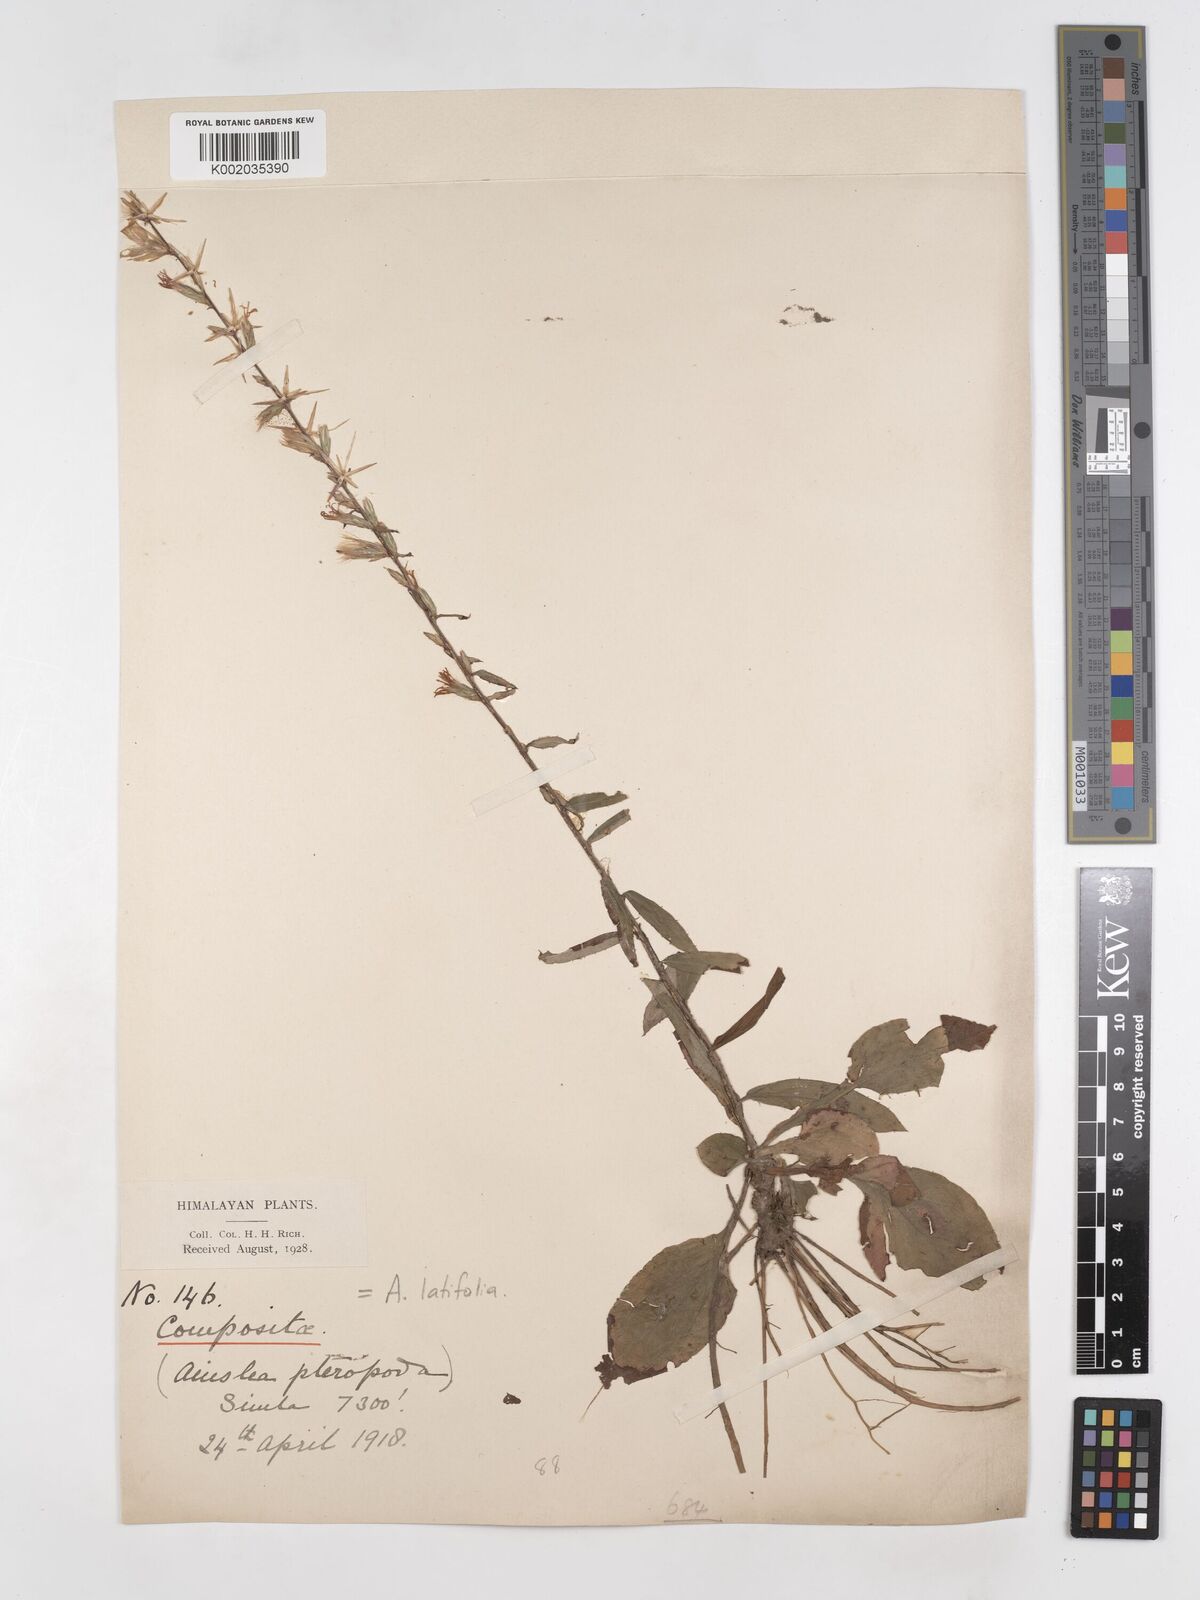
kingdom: Plantae
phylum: Tracheophyta
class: Magnoliopsida
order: Asterales
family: Asteraceae
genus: Ainsliaea
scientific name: Ainsliaea latifolia
